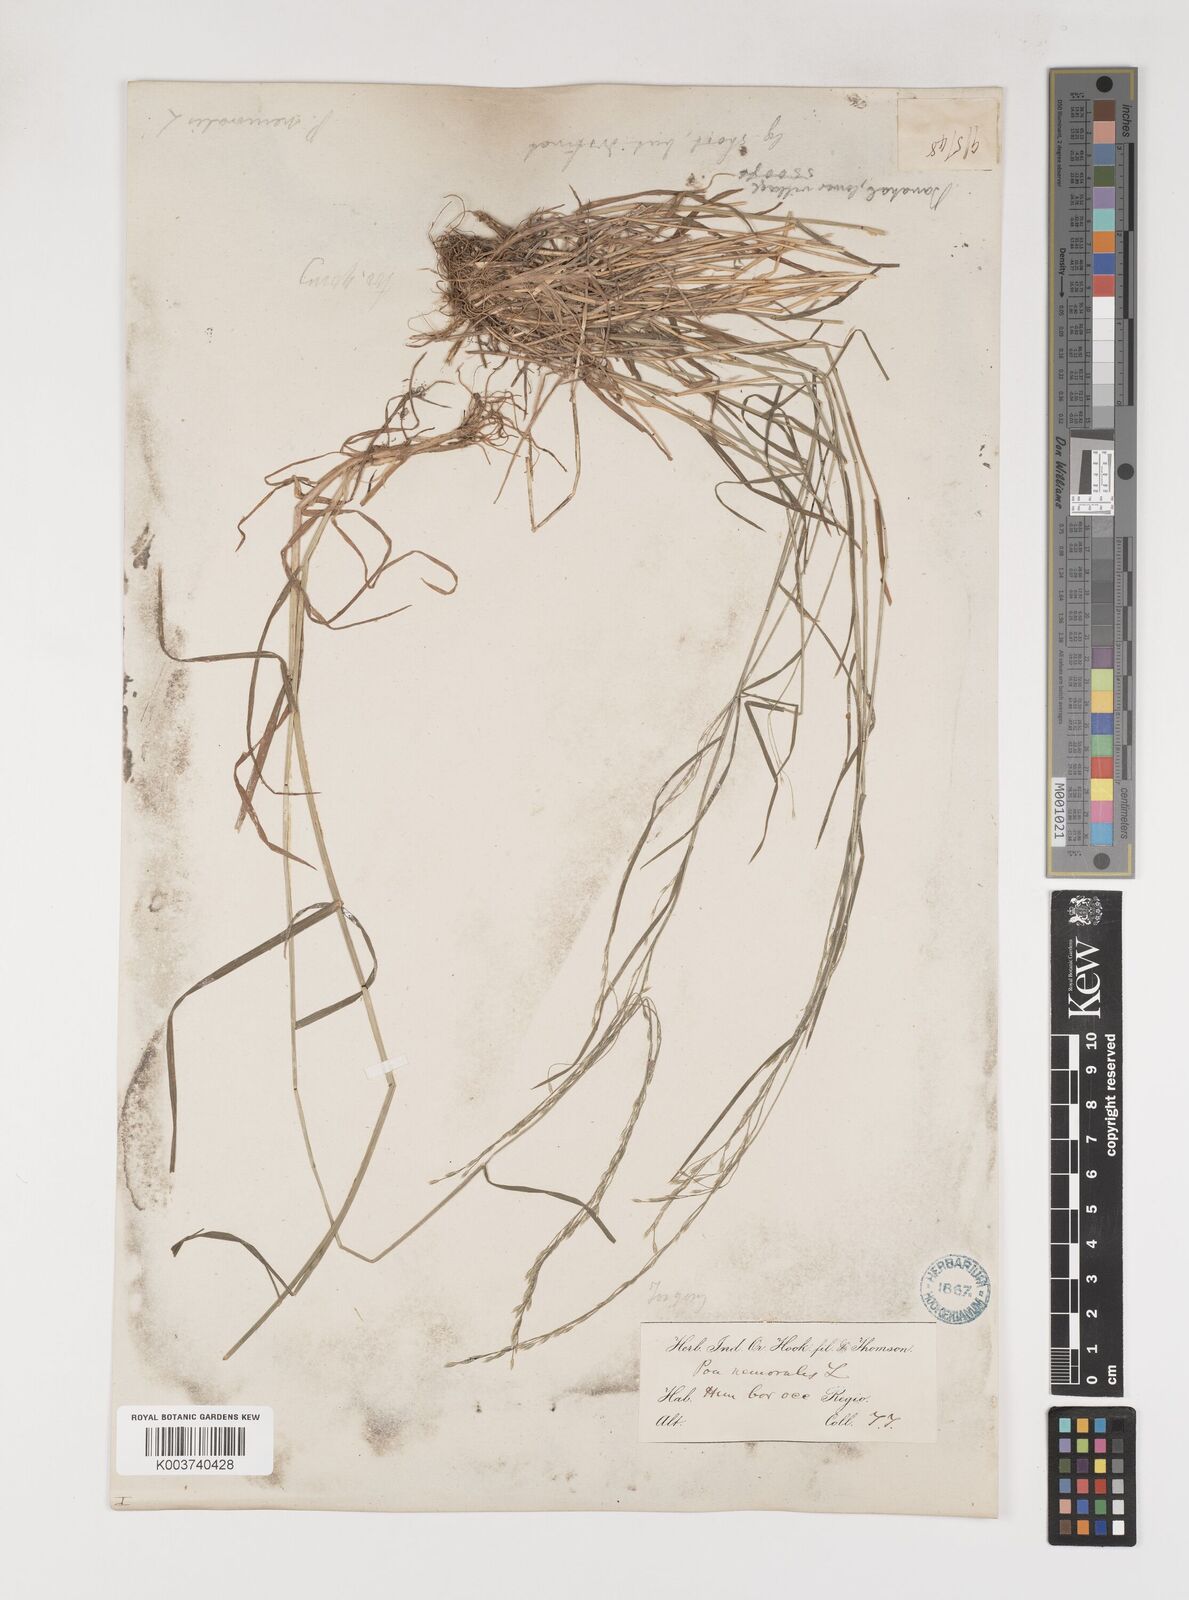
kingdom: Plantae
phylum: Tracheophyta
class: Liliopsida
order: Poales
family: Poaceae
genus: Poa
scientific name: Poa nemoralis
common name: Wood bluegrass
